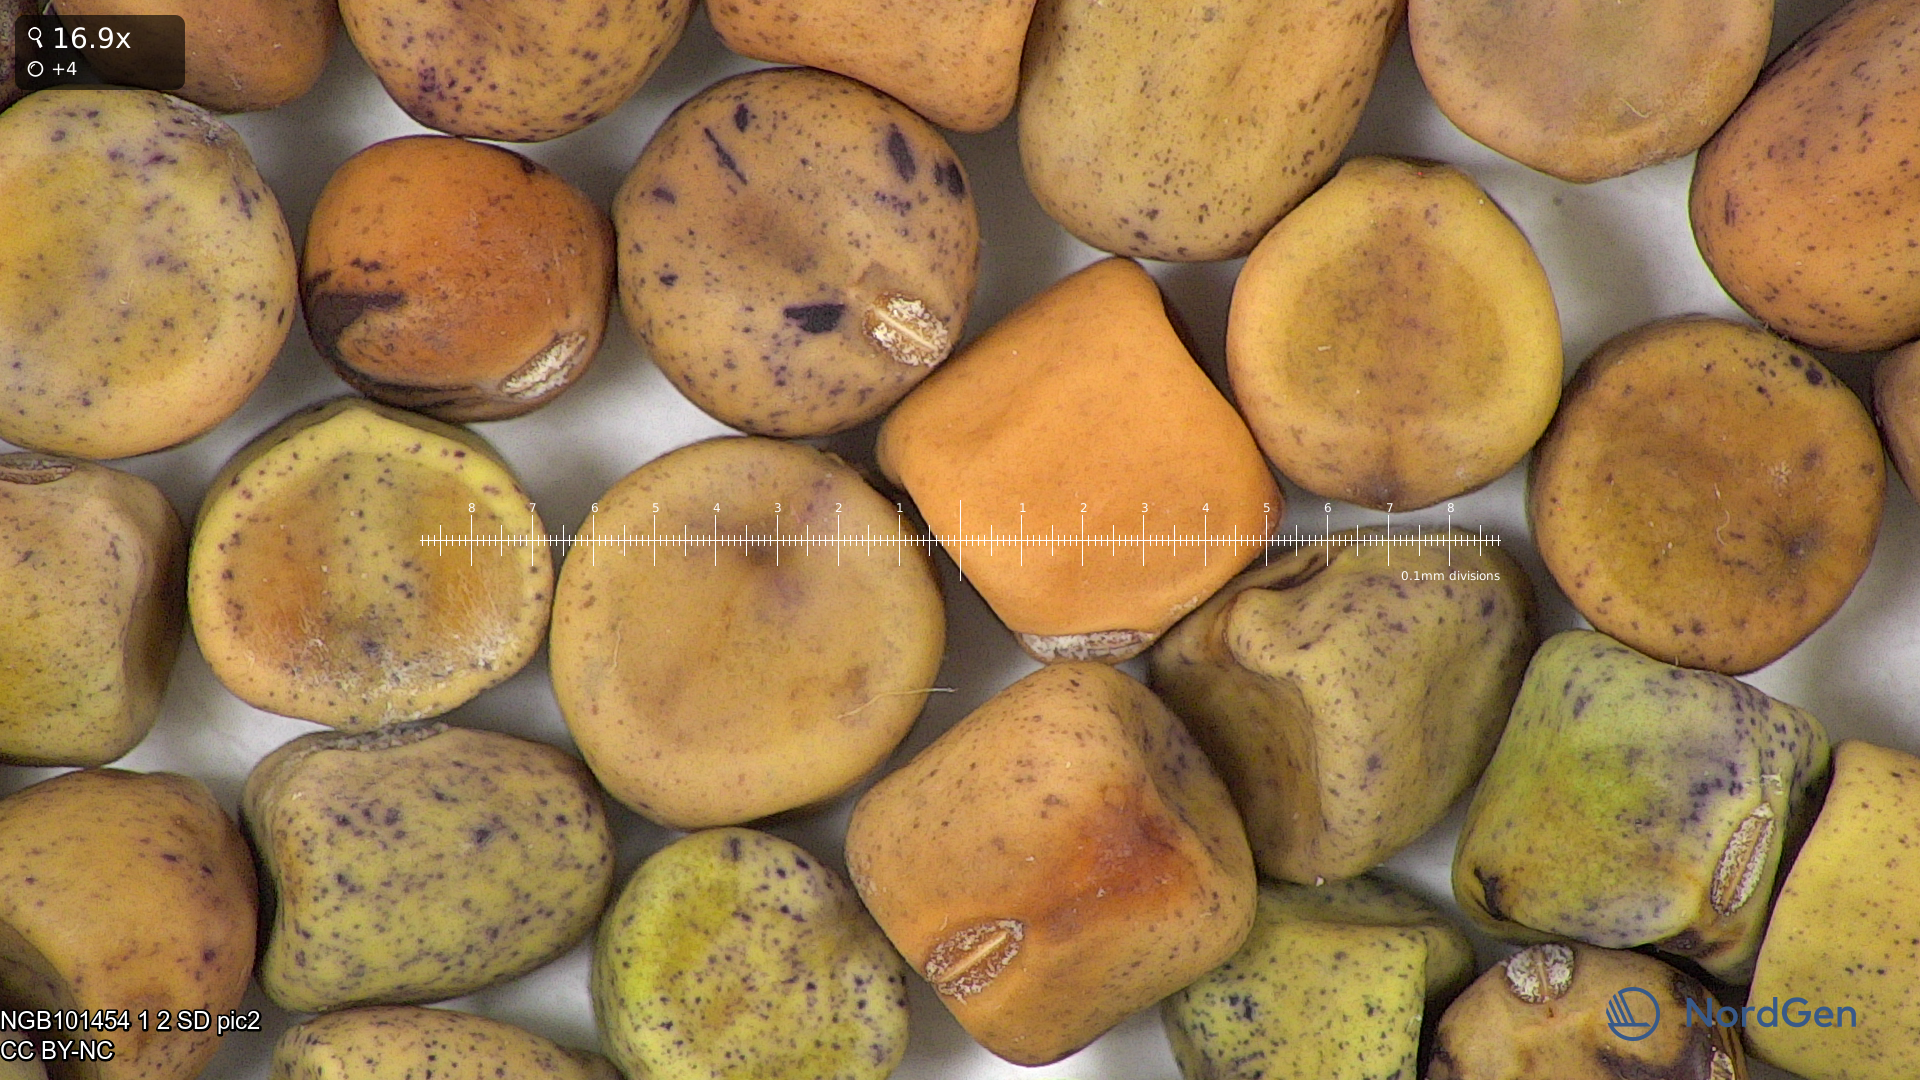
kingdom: Plantae
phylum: Tracheophyta
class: Magnoliopsida
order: Fabales
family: Fabaceae
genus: Lathyrus
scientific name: Lathyrus oleraceus
